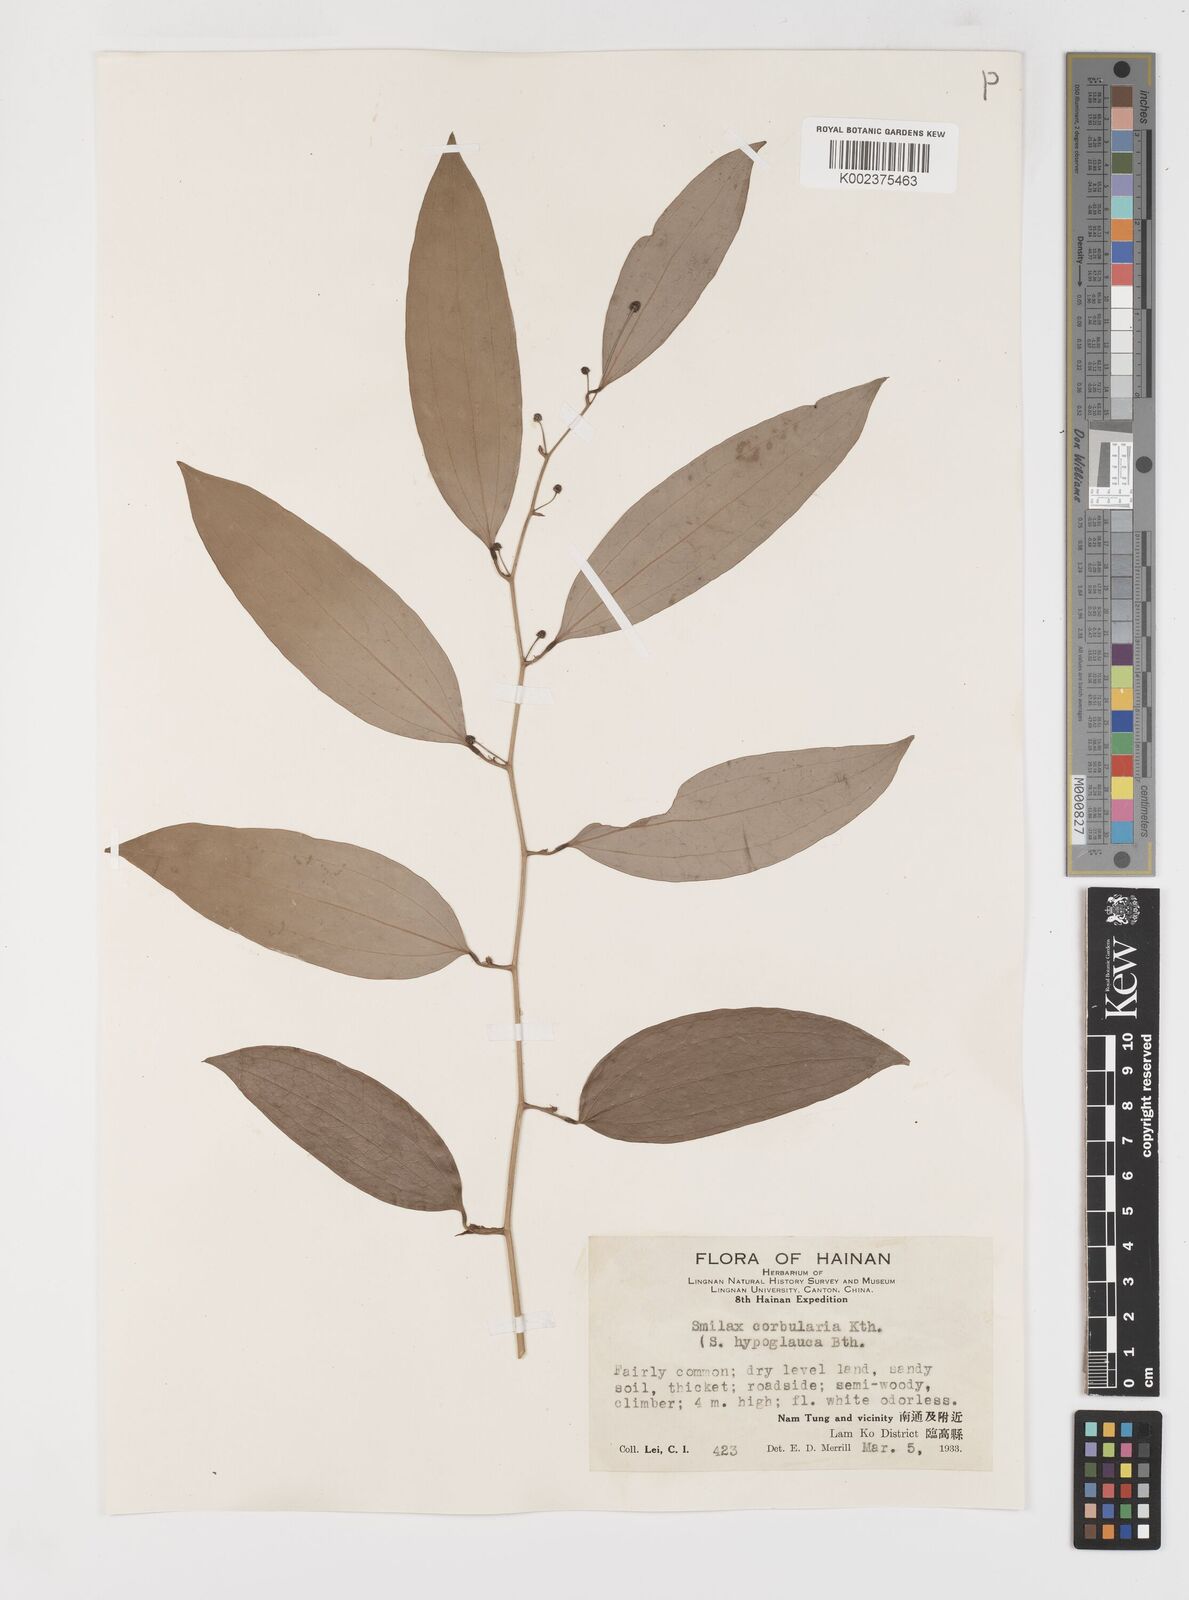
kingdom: Plantae
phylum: Tracheophyta
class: Liliopsida
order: Liliales
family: Smilacaceae
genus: Smilax
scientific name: Smilax hypoglauca
